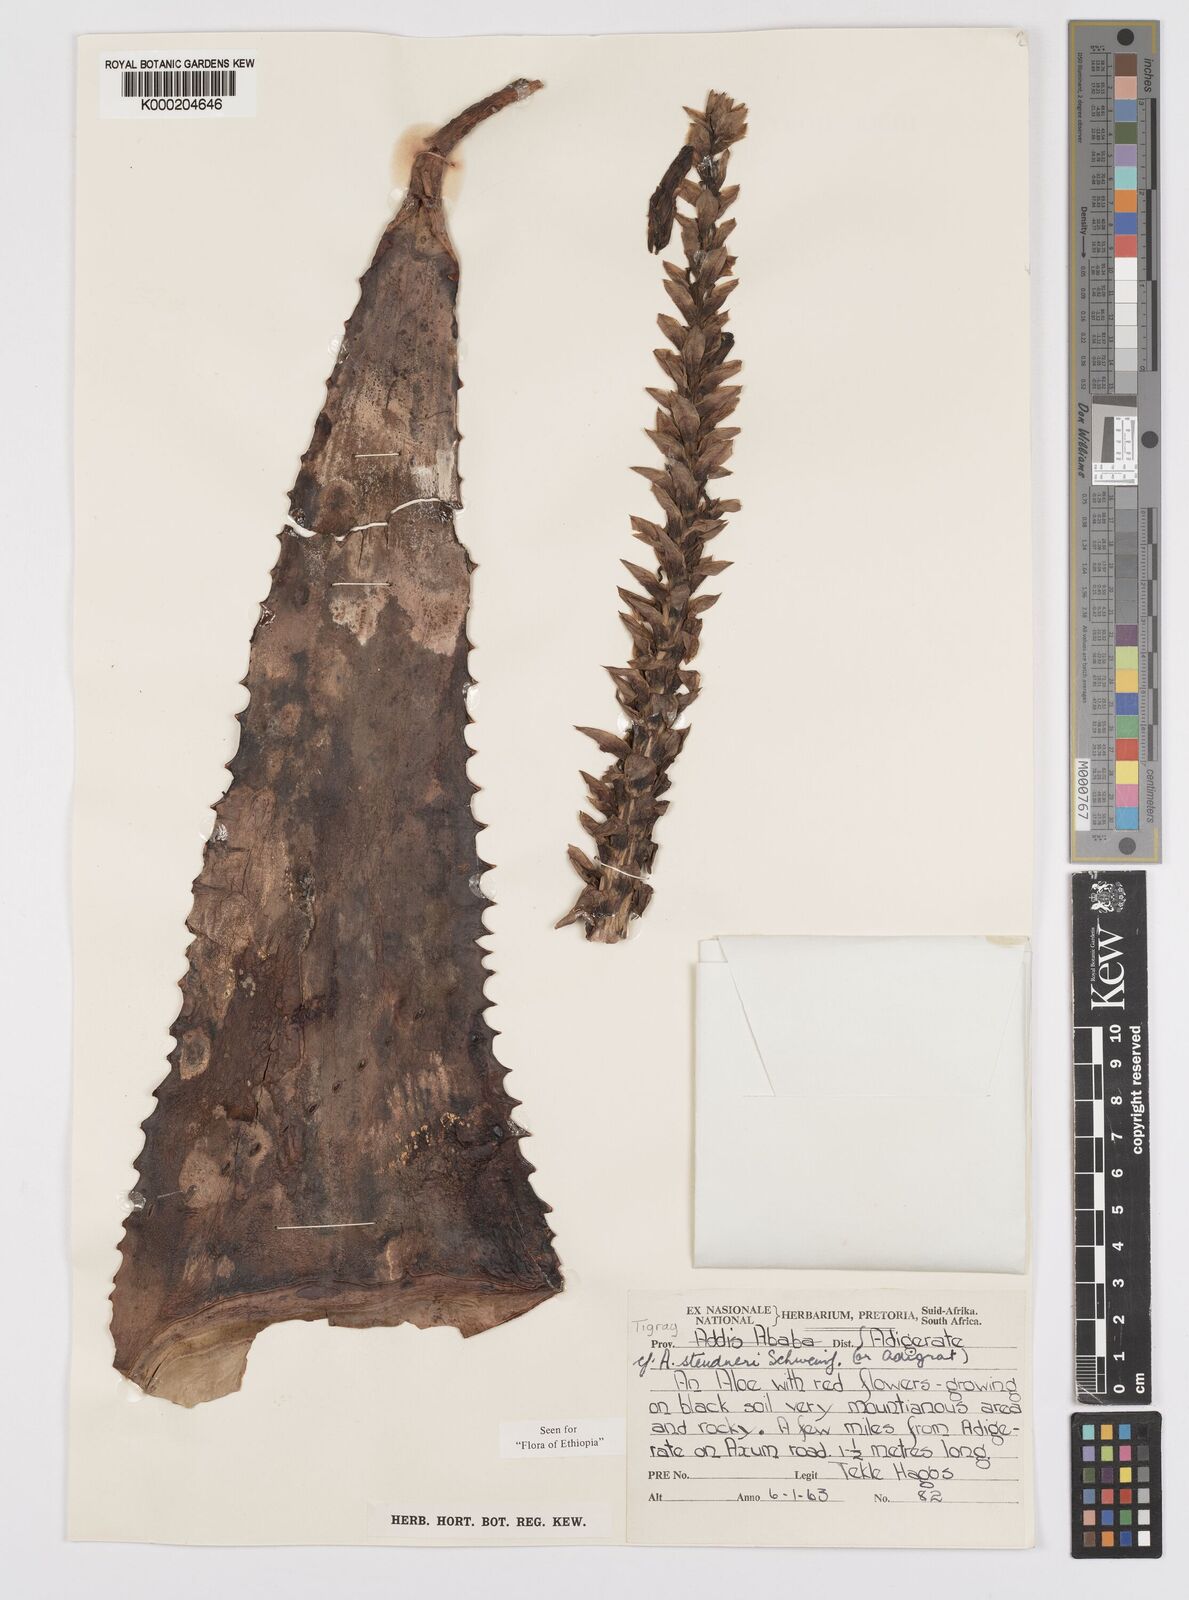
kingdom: Plantae
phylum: Tracheophyta
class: Liliopsida
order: Asparagales
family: Asphodelaceae
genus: Aloe
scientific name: Aloe steudneri
